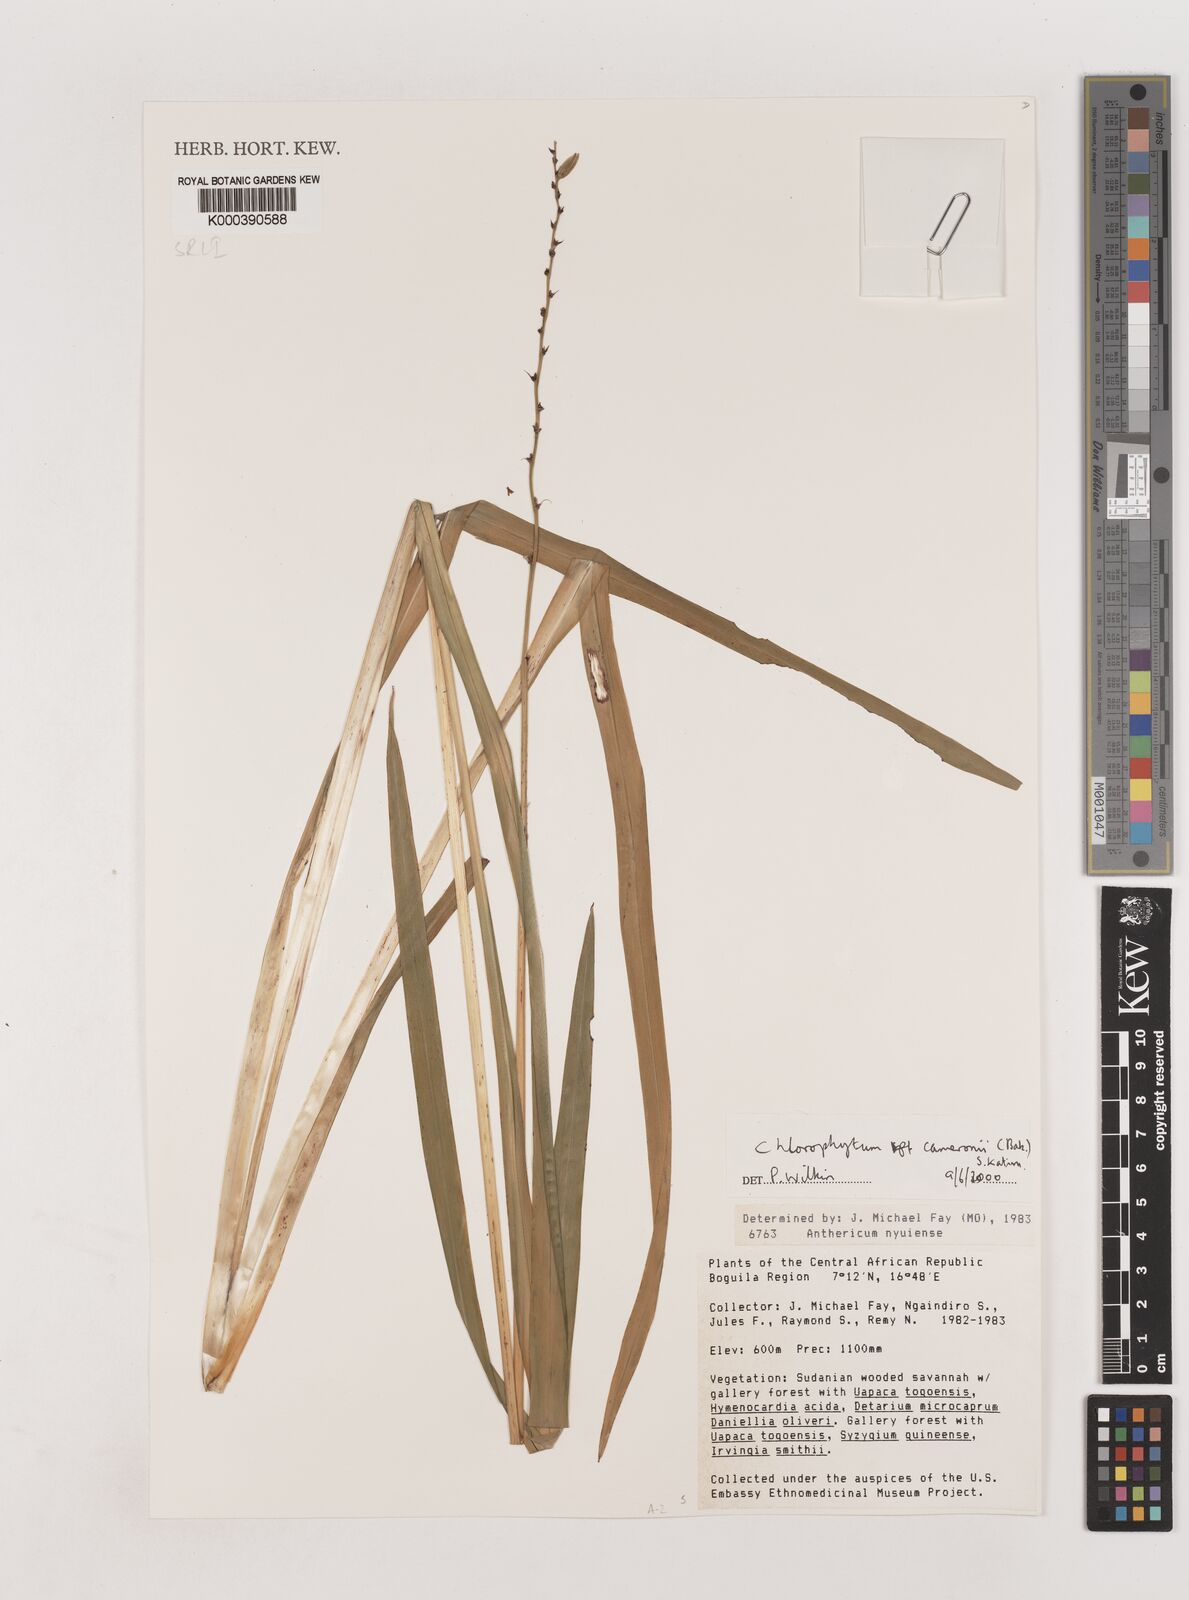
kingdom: Plantae
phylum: Tracheophyta
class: Liliopsida
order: Asparagales
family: Asparagaceae
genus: Chlorophytum
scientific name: Chlorophytum cameronii
